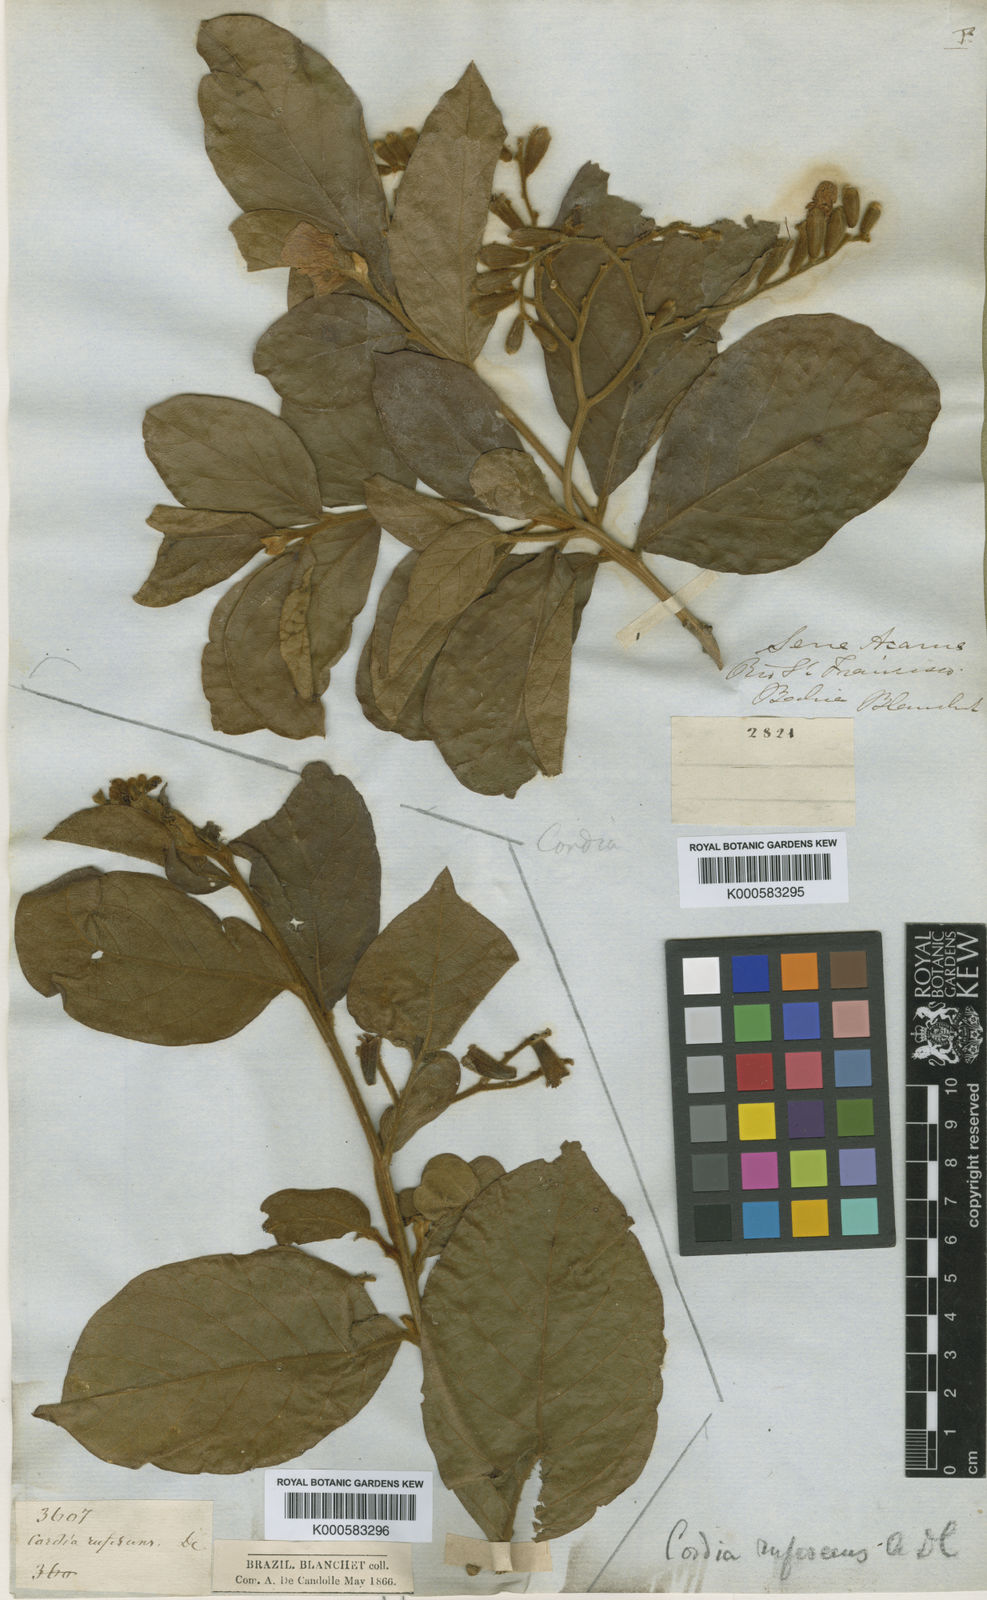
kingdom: Plantae
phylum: Tracheophyta
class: Magnoliopsida
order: Boraginales
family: Cordiaceae
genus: Cordia
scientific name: Cordia rufescens
